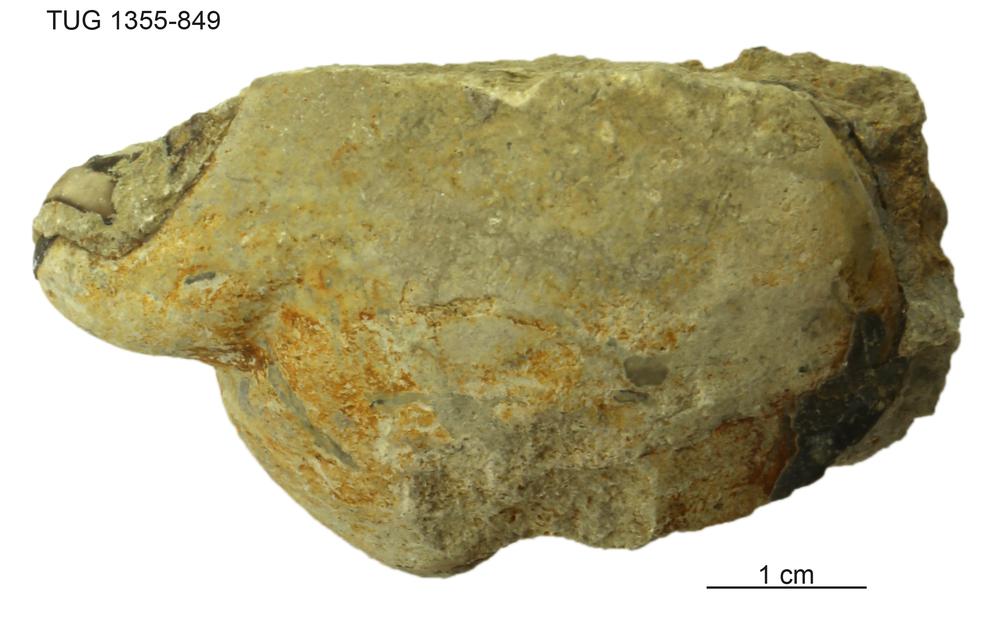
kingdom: Animalia
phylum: Arthropoda
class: Trilobita
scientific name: Trilobita
